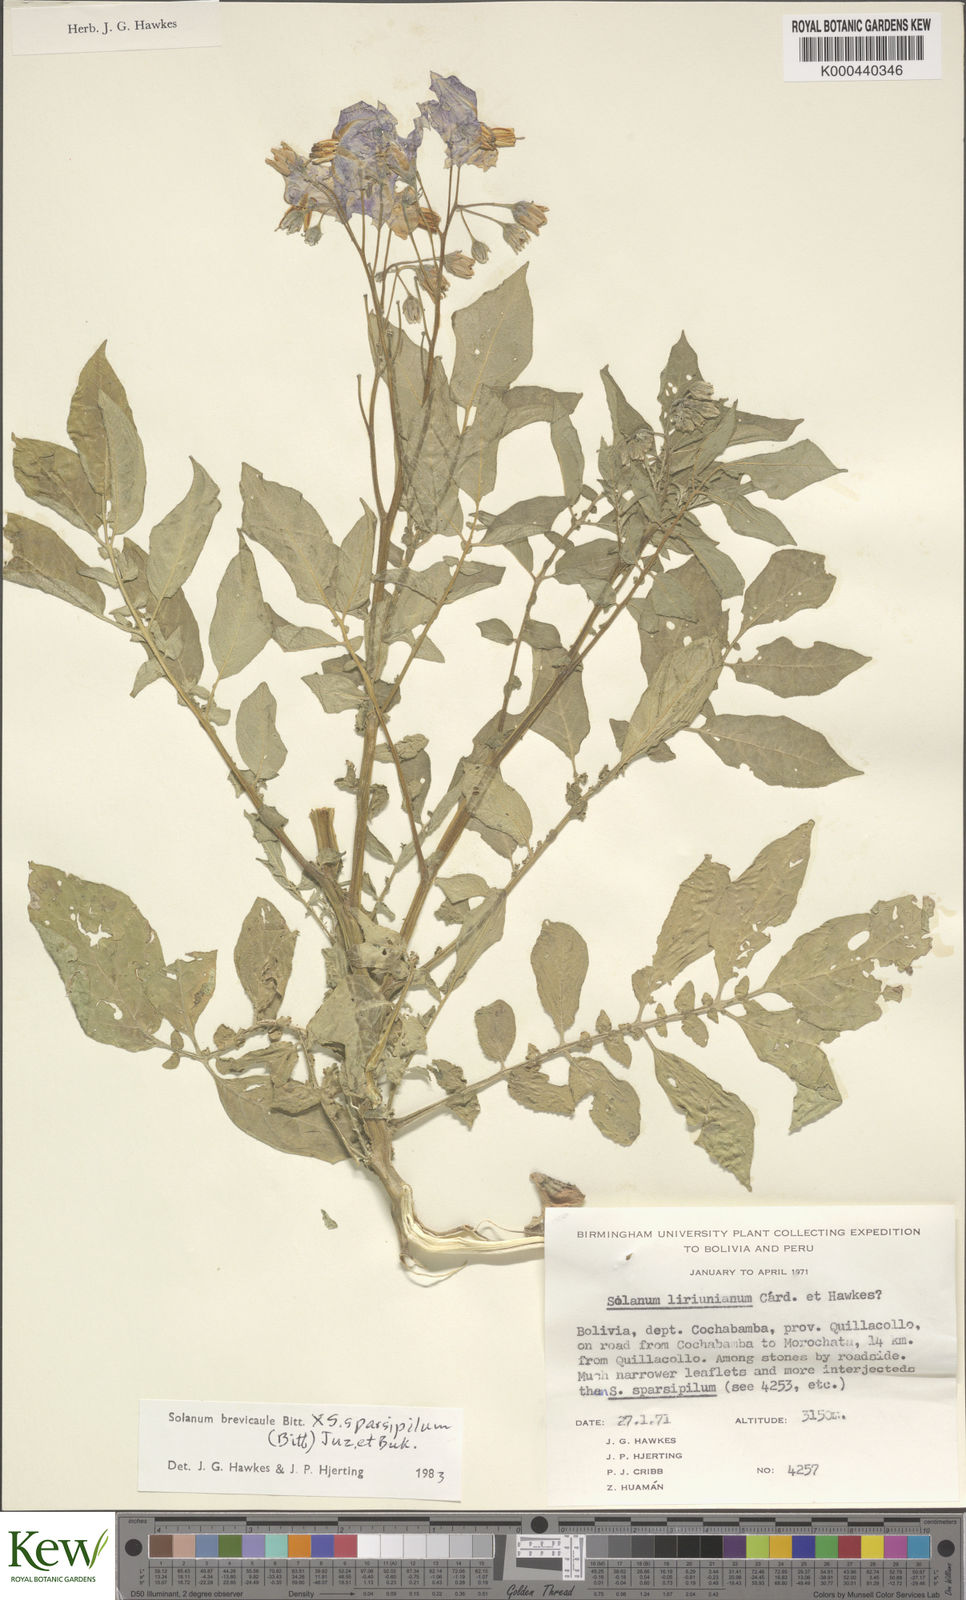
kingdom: Plantae
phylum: Tracheophyta
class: Magnoliopsida
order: Solanales
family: Solanaceae
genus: Solanum
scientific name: Solanum brevicaule
